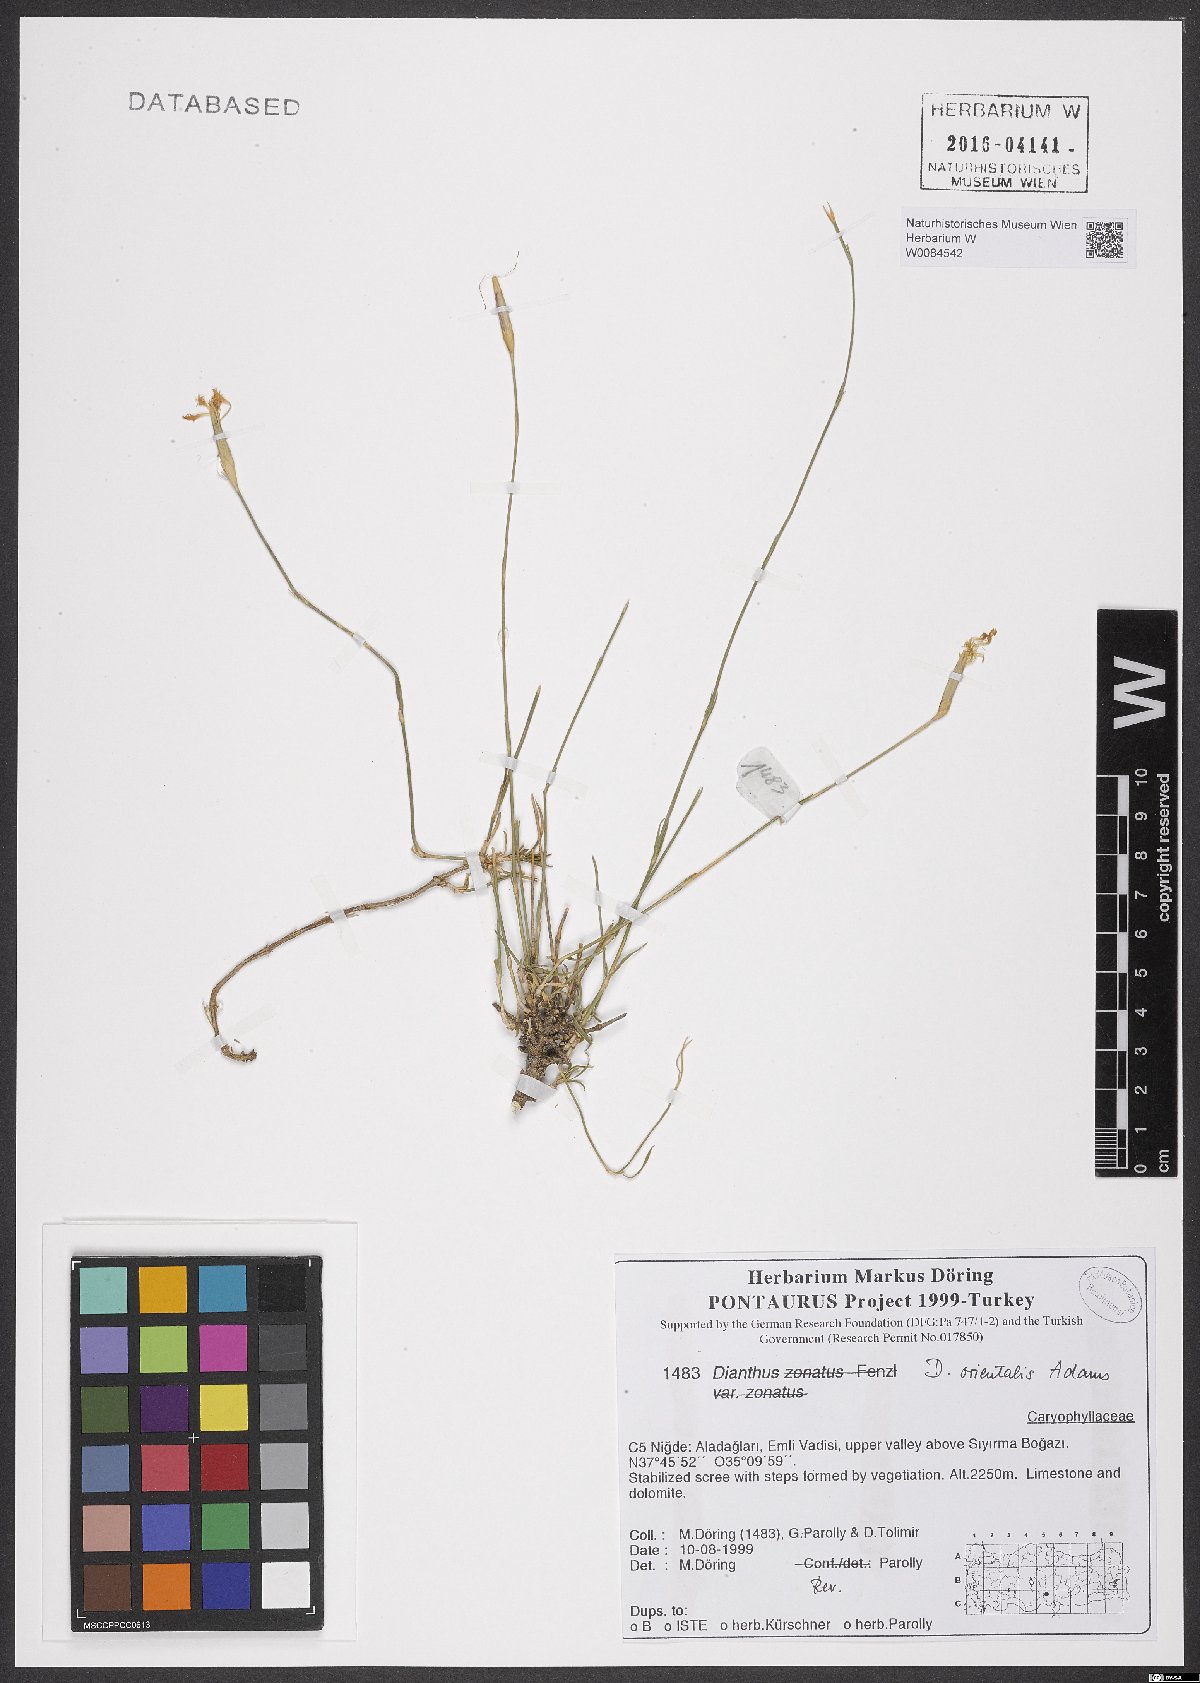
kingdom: Plantae
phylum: Tracheophyta
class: Magnoliopsida
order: Caryophyllales
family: Caryophyllaceae
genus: Dianthus
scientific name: Dianthus orientalis
